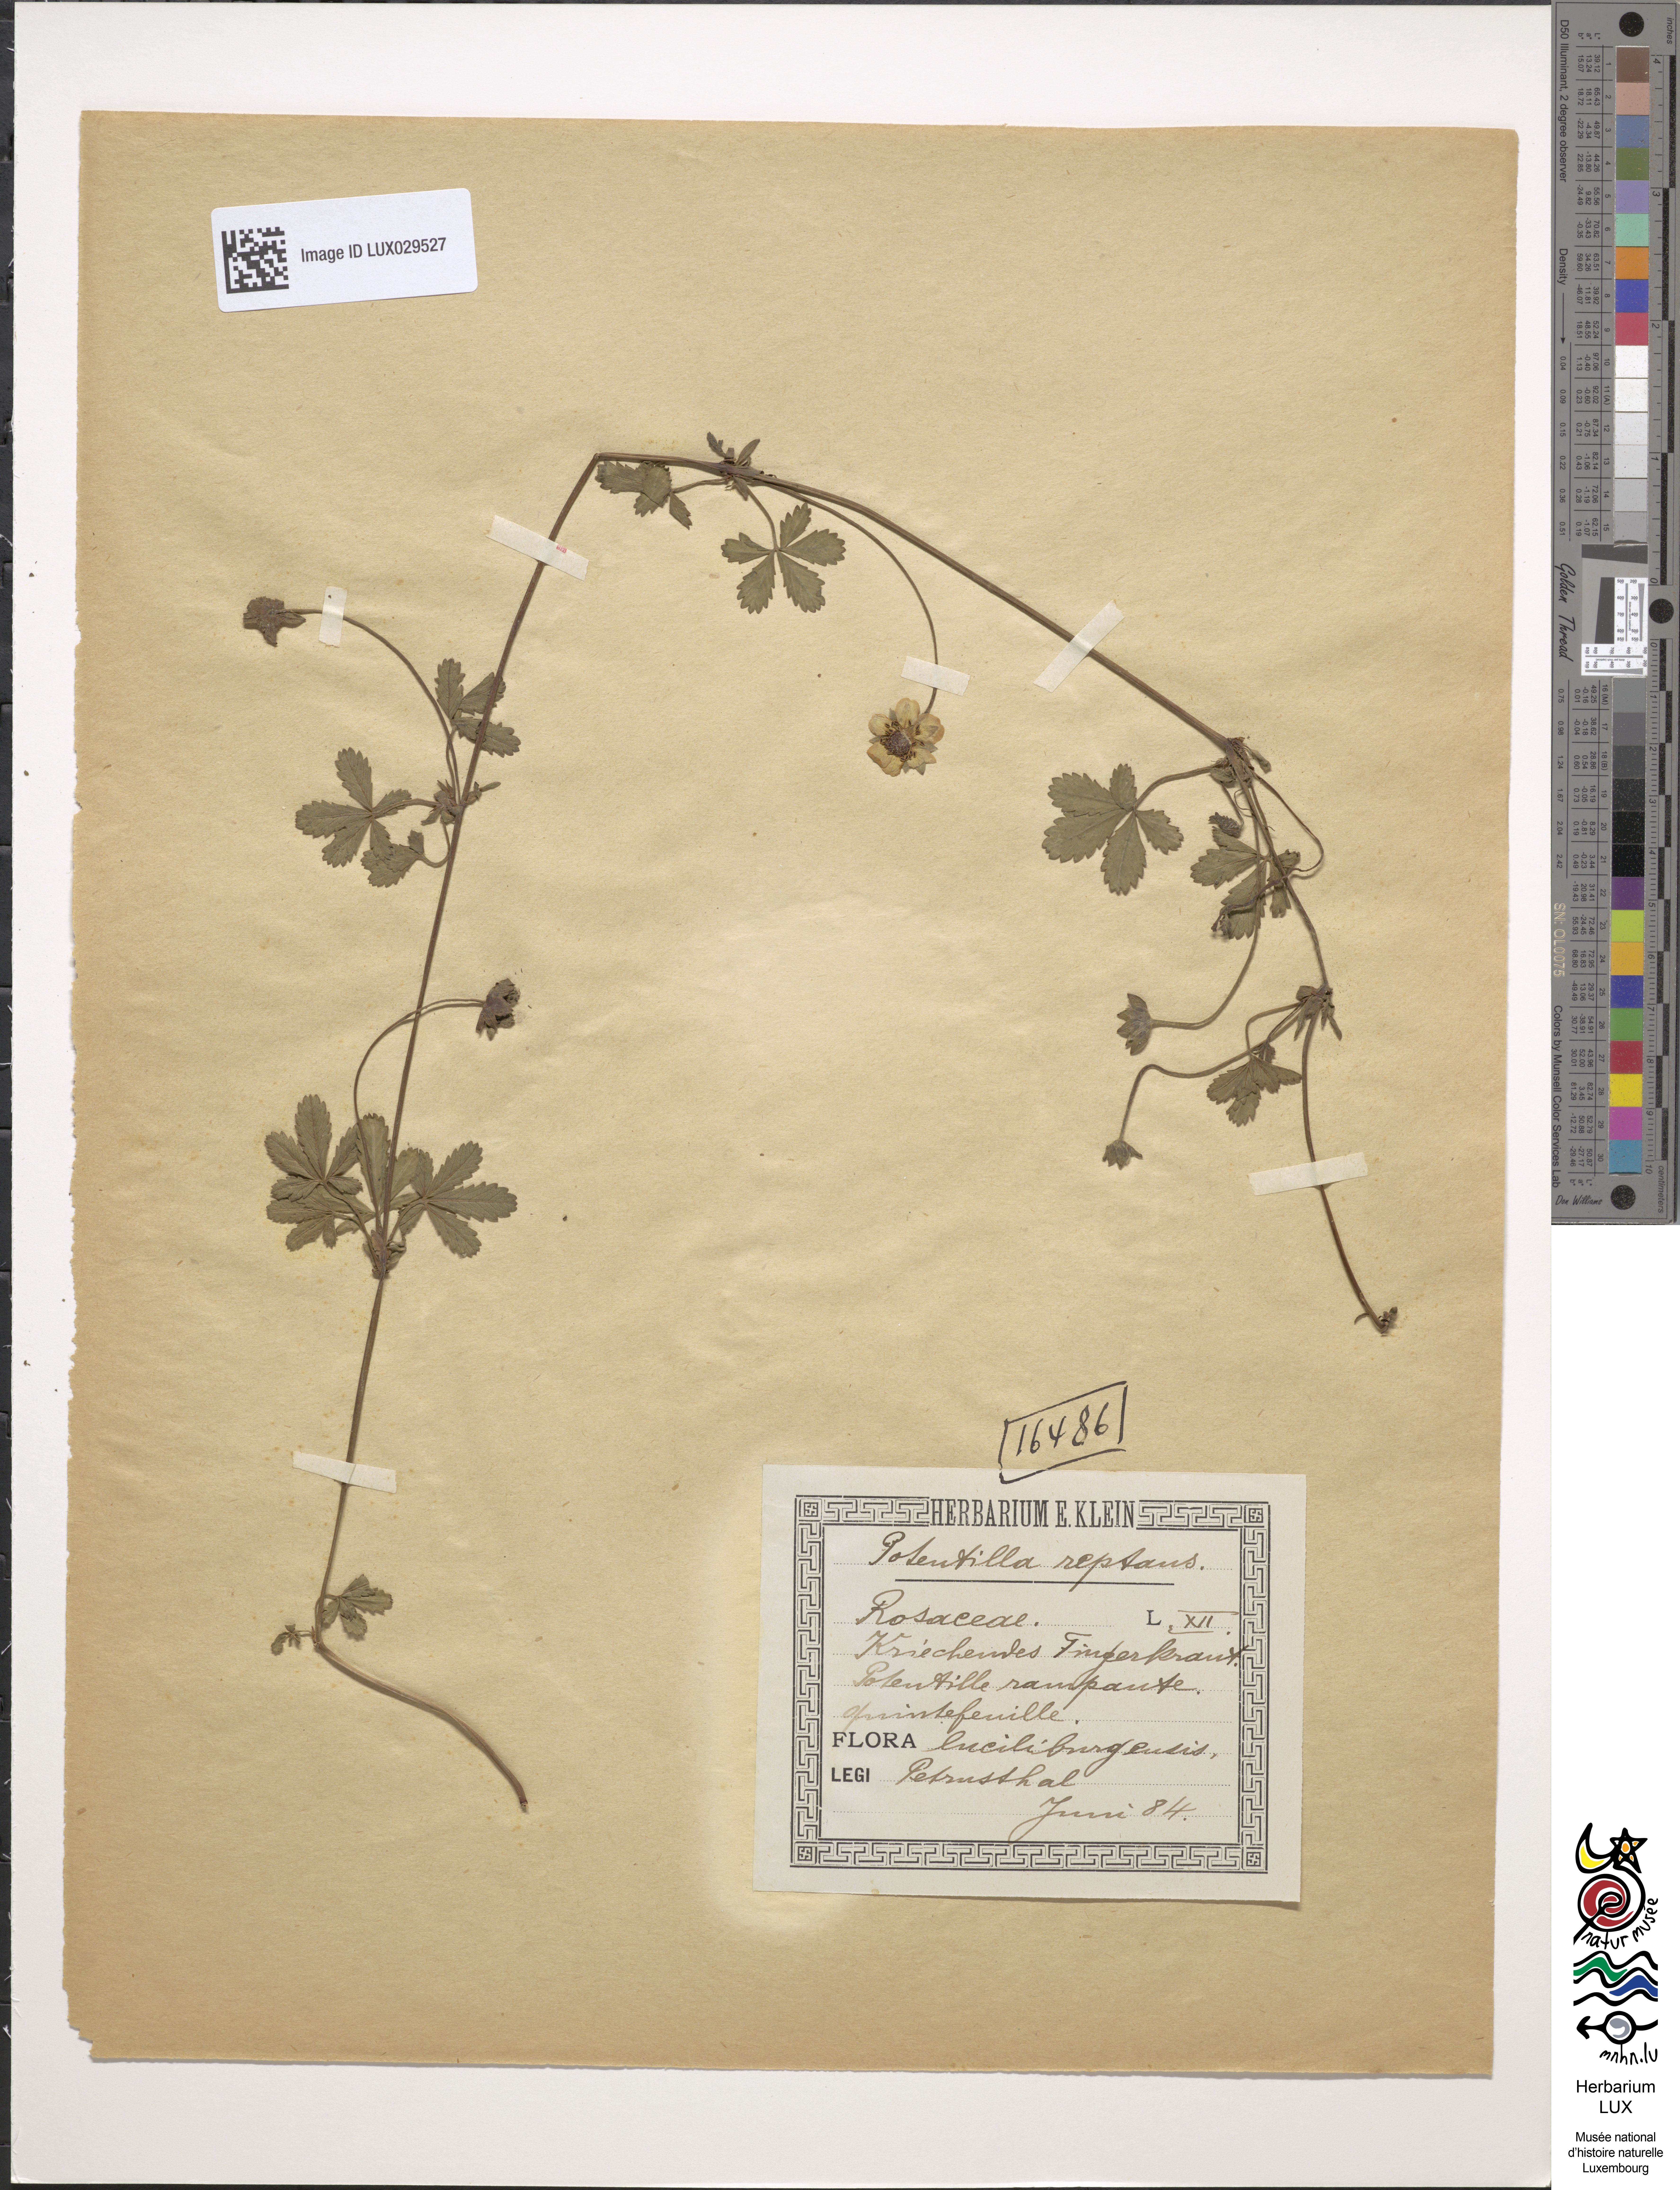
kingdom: Plantae
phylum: Tracheophyta
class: Magnoliopsida
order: Rosales
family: Rosaceae
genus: Potentilla
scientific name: Potentilla reptans
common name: Creeping cinquefoil
